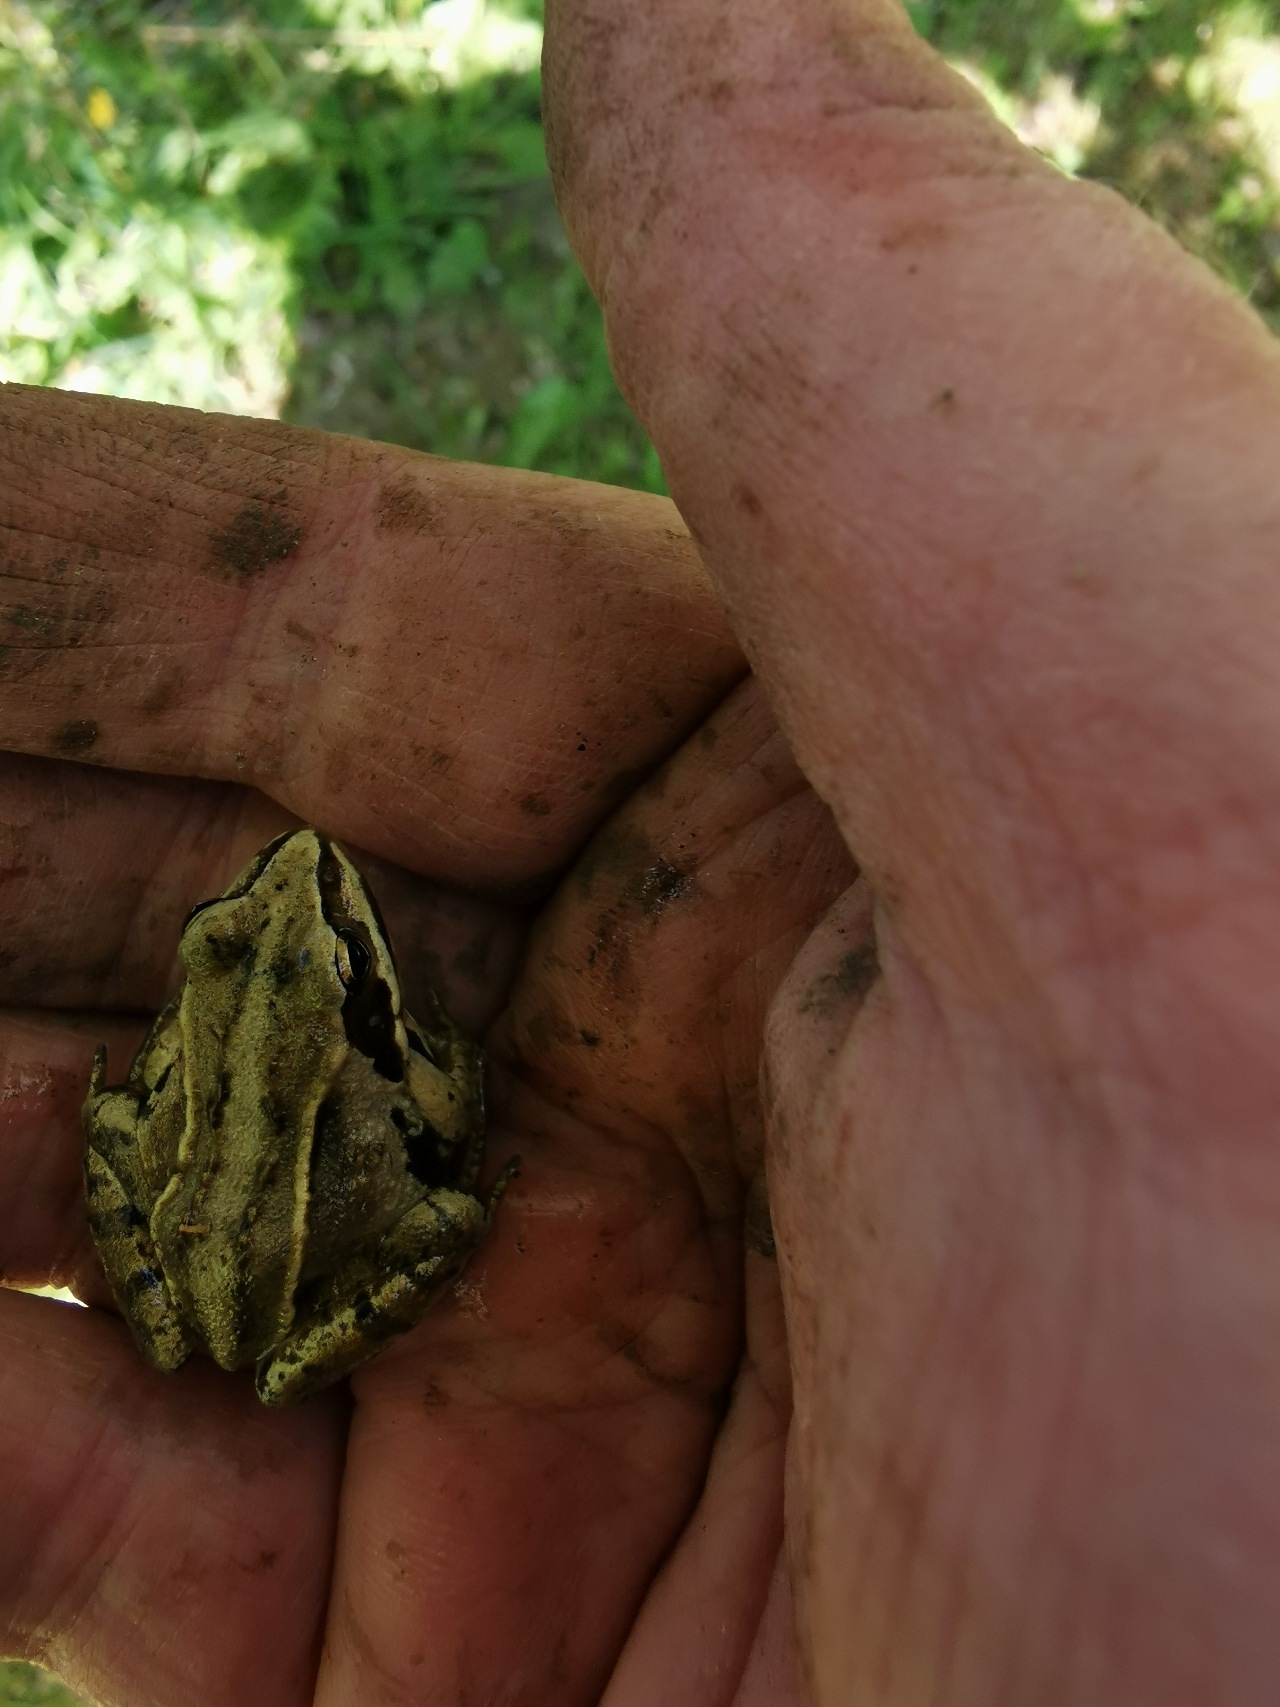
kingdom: Animalia
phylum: Chordata
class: Amphibia
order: Anura
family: Ranidae
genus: Rana
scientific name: Rana arvalis
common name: Spidssnudet frø
